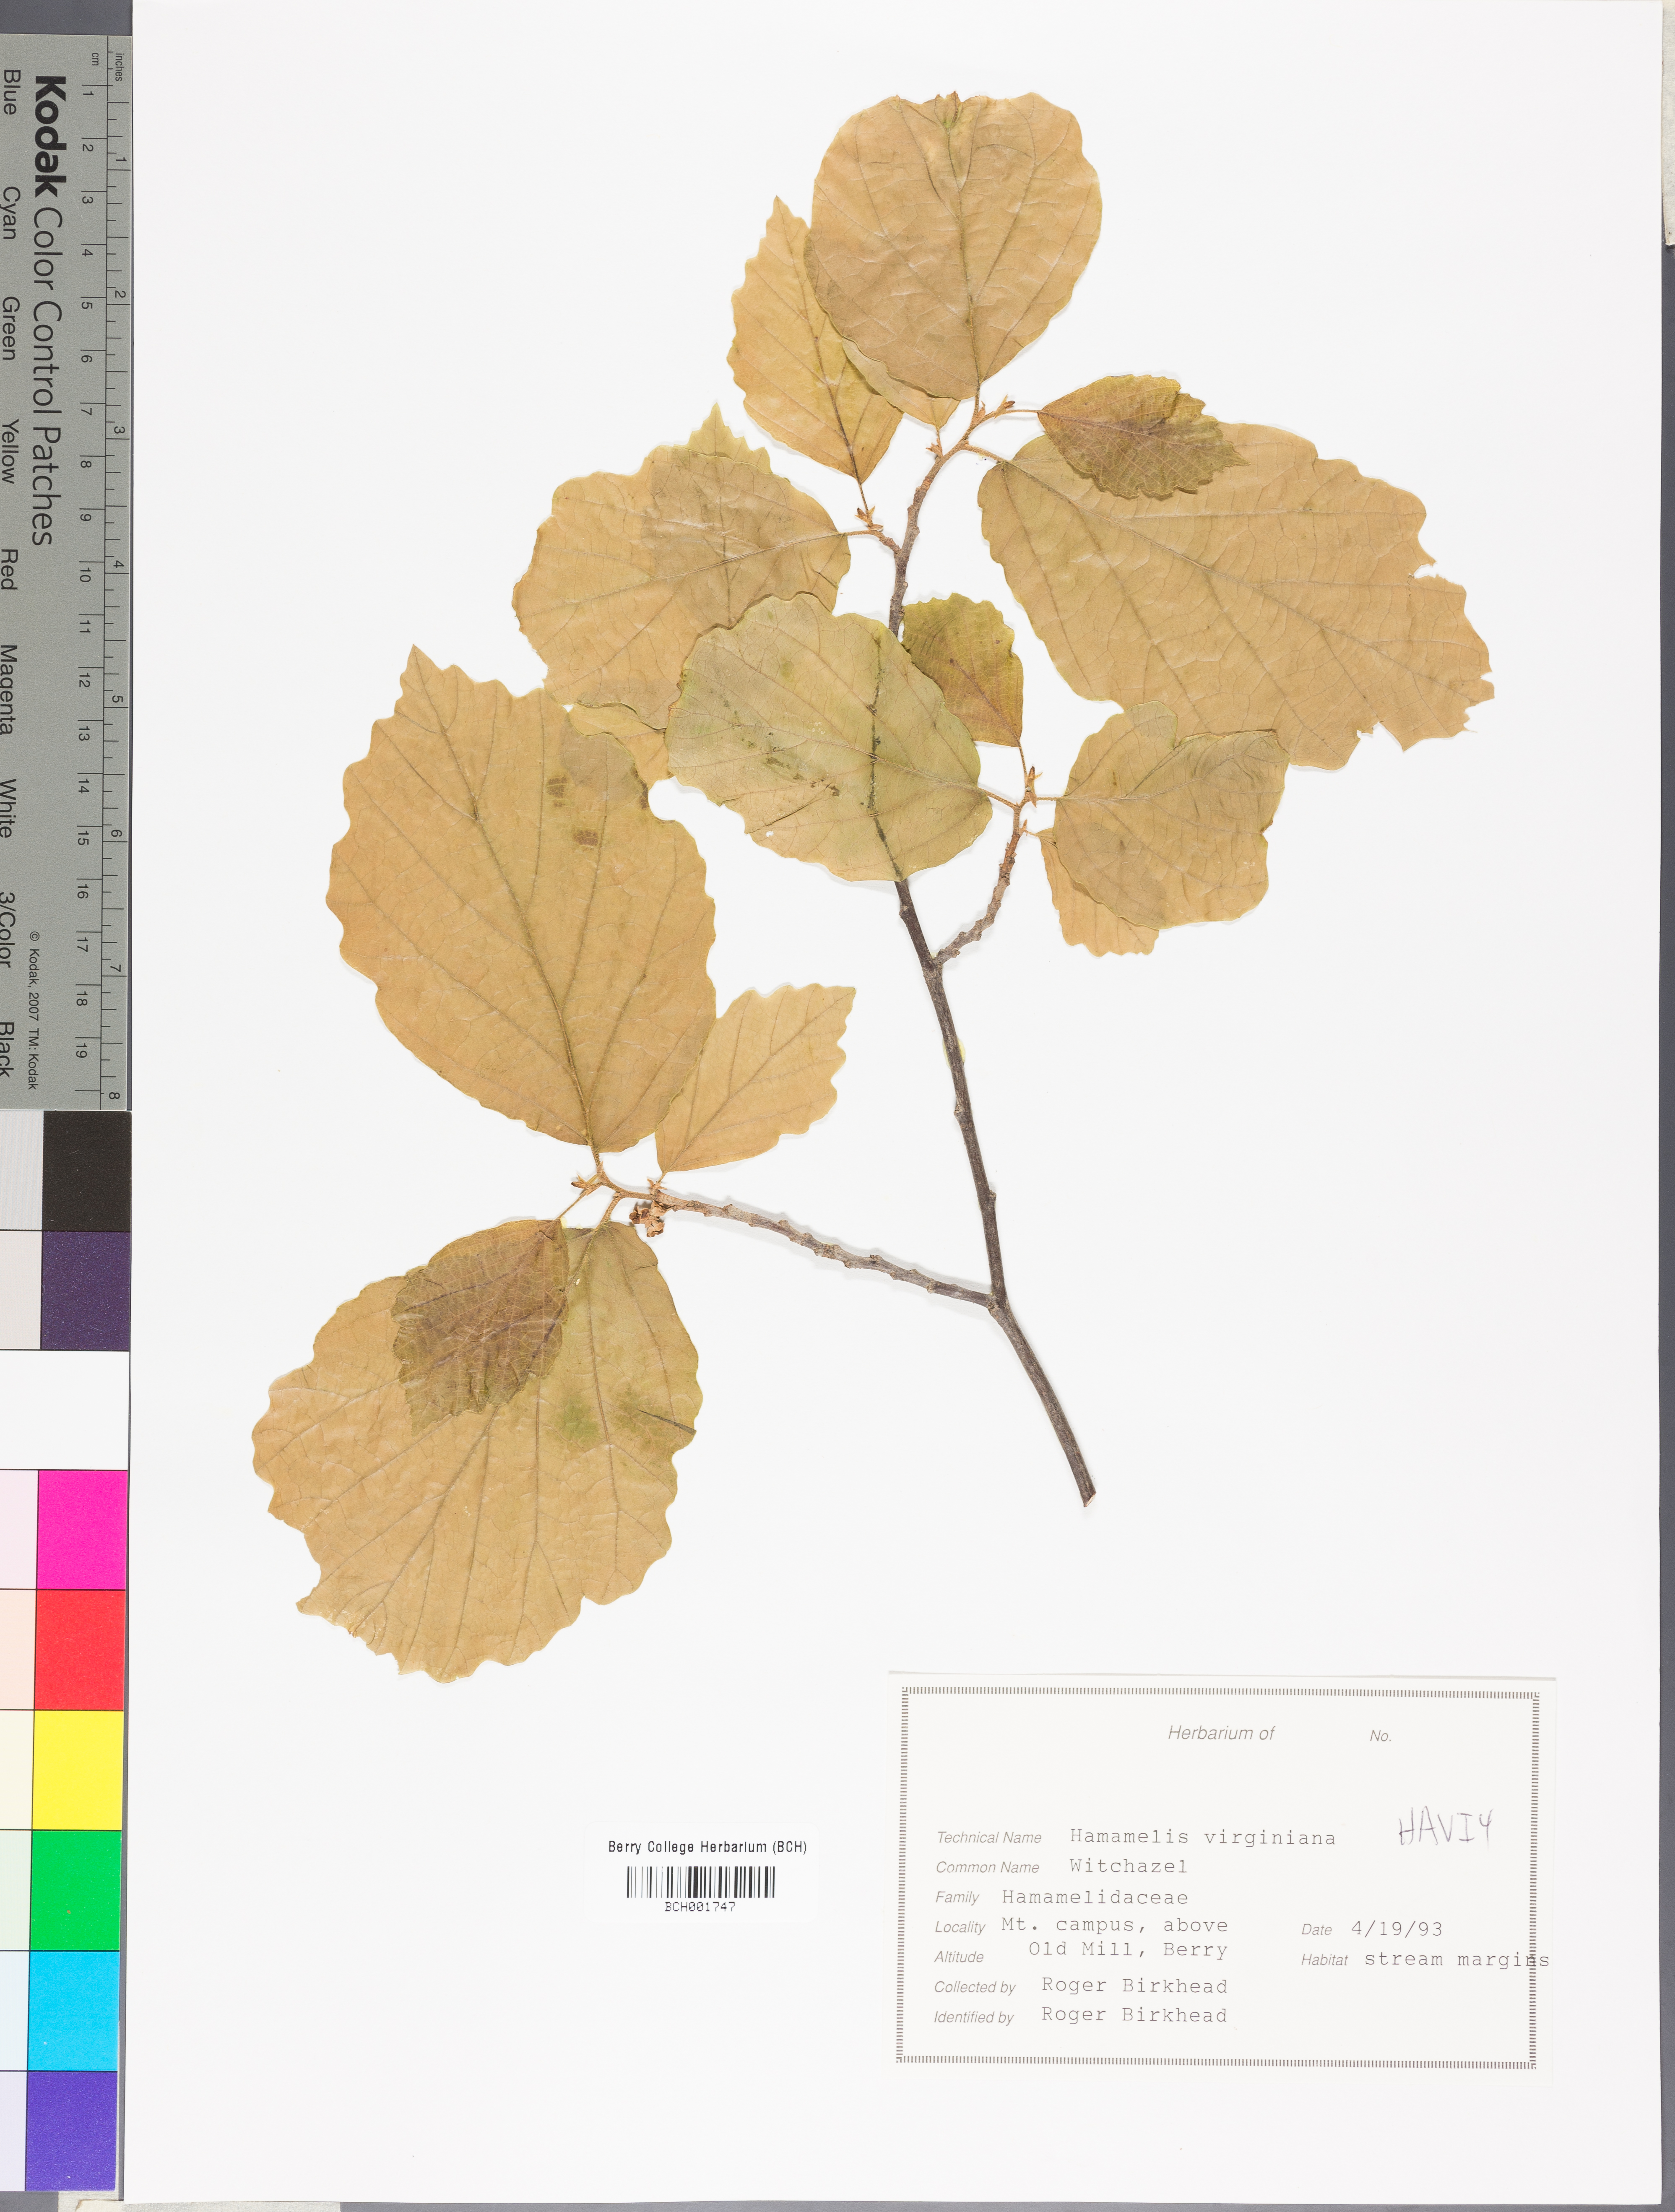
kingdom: Plantae
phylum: Tracheophyta
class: Magnoliopsida
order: Saxifragales
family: Hamamelidaceae
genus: Hamamelis
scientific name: Hamamelis virginiana
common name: Witch-hazel
